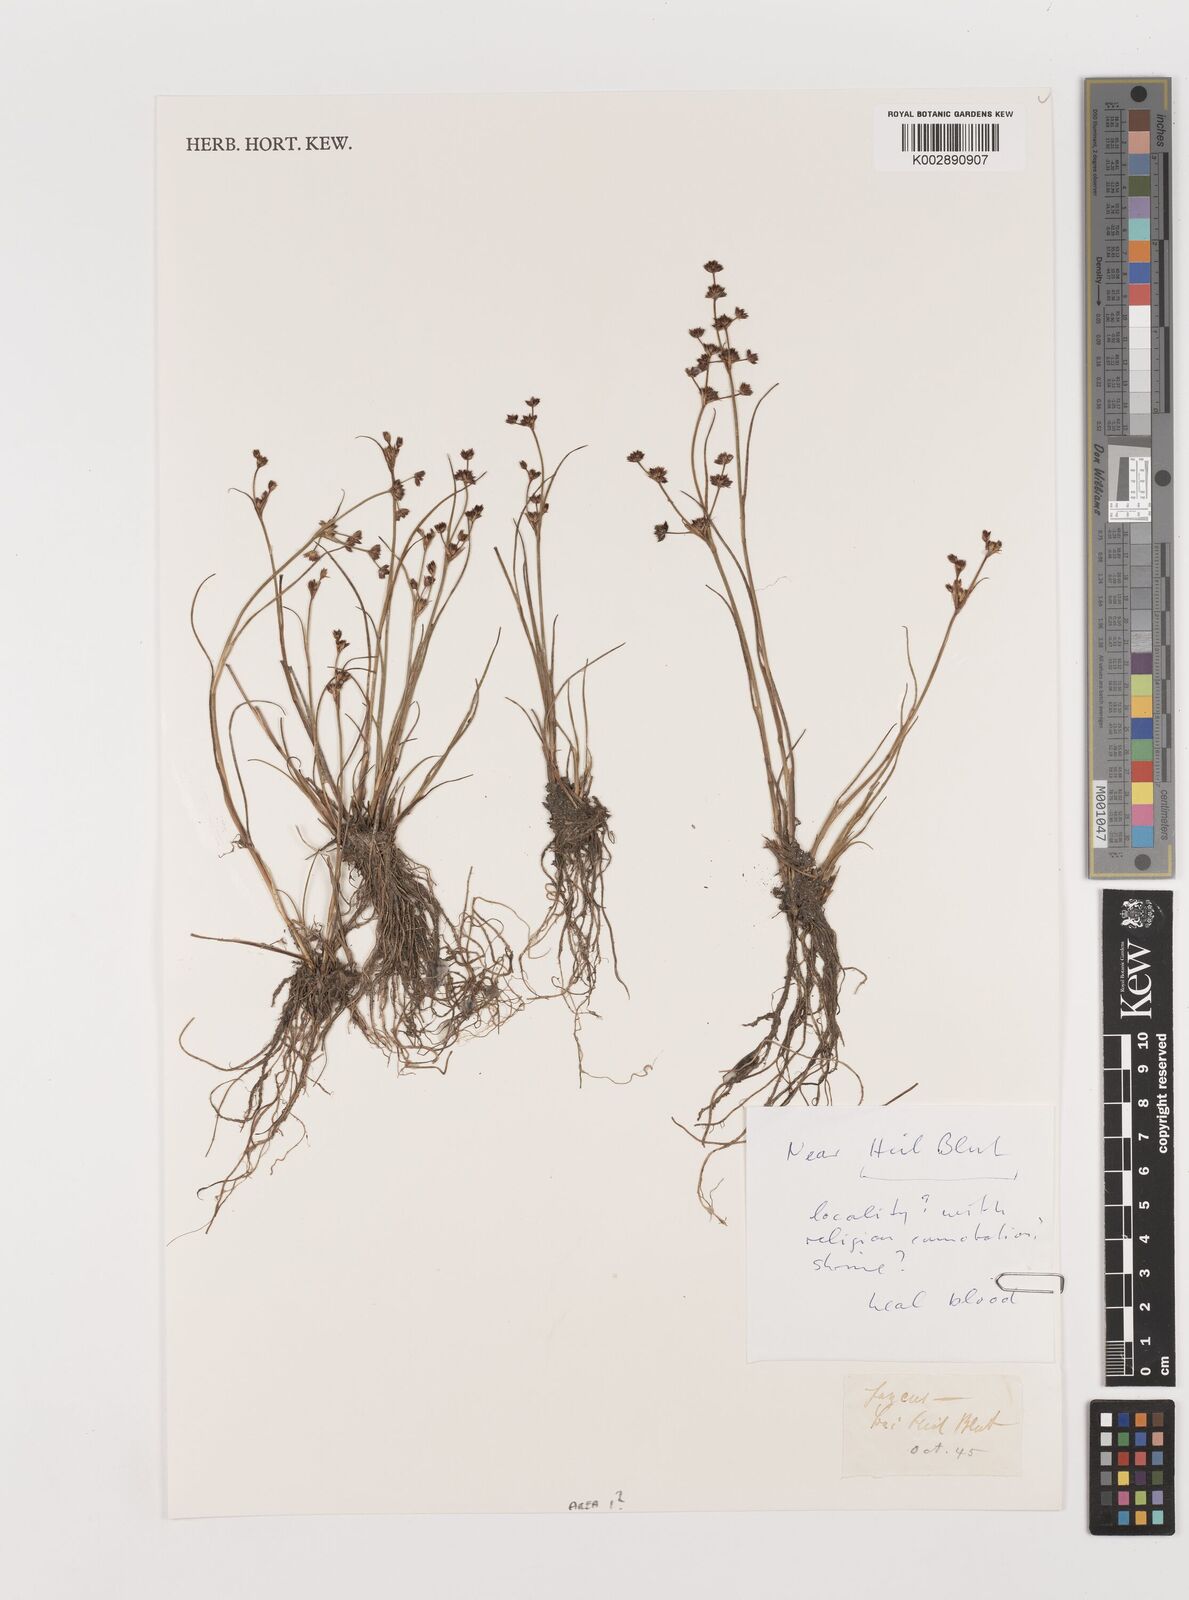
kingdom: Plantae
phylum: Tracheophyta
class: Liliopsida
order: Poales
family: Juncaceae
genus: Juncus
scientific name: Juncus
